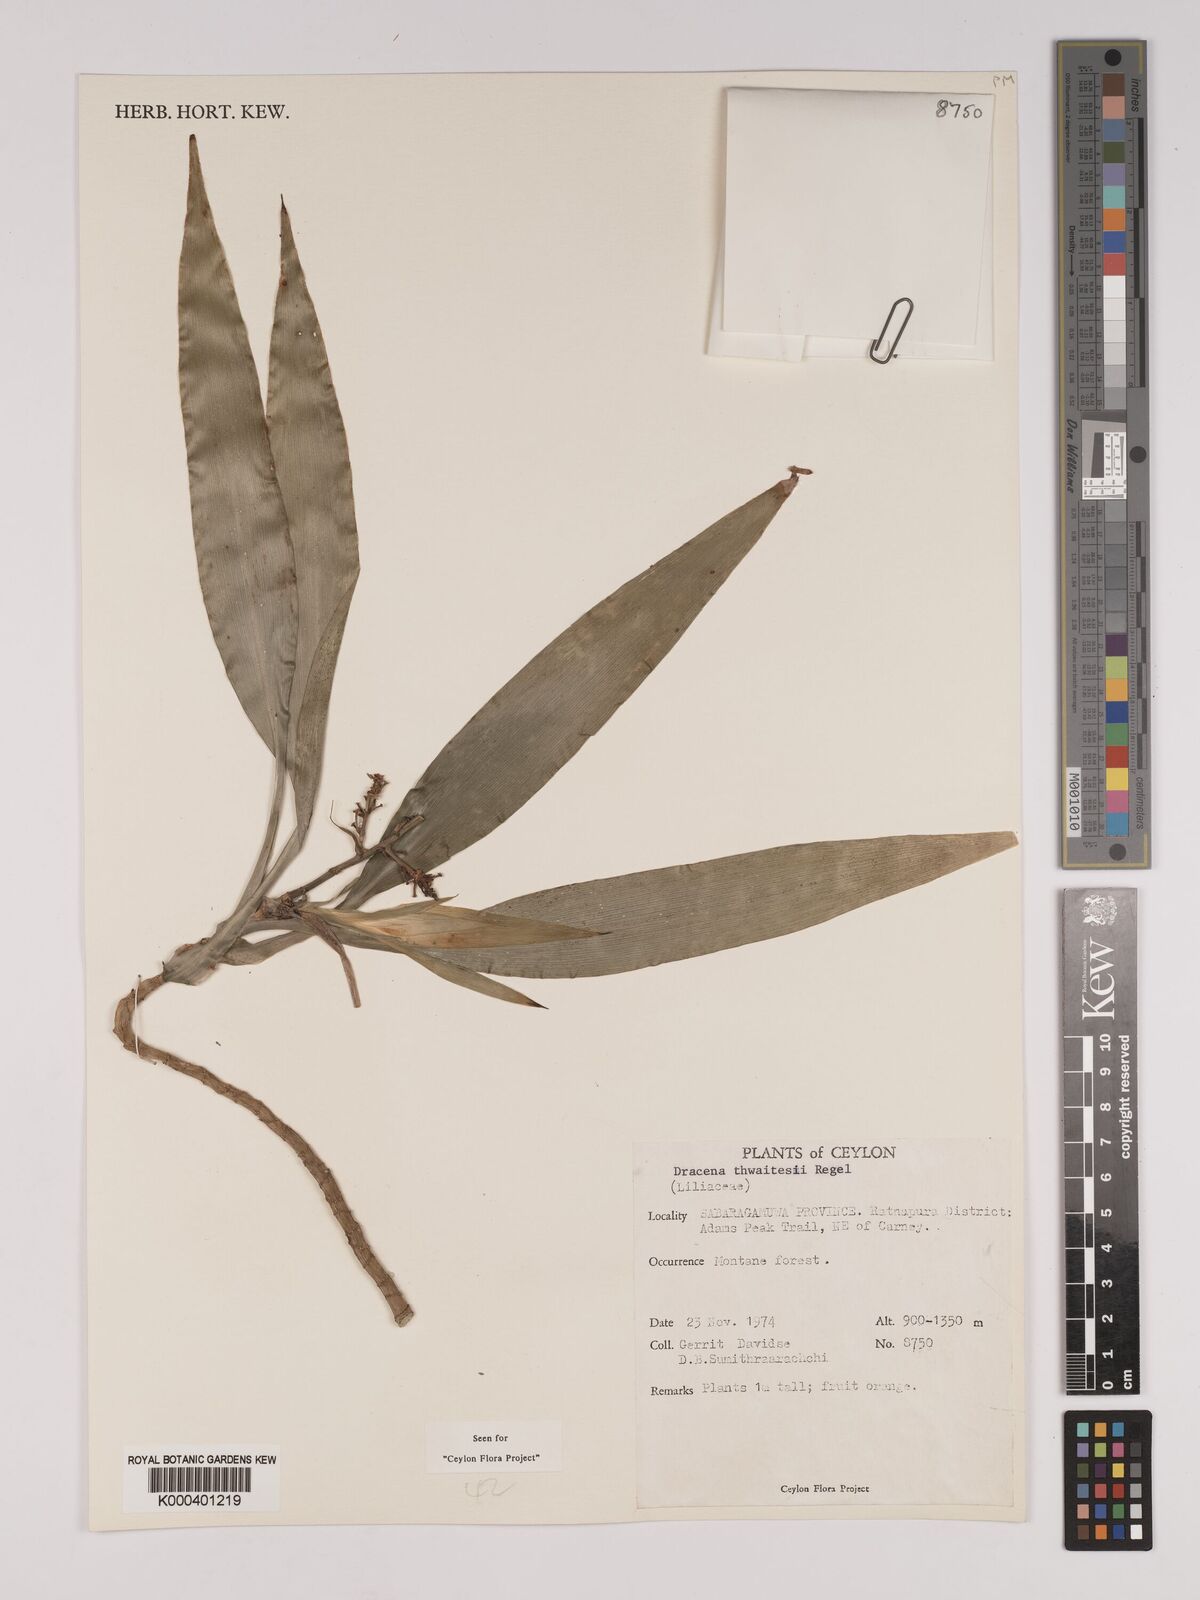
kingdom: Plantae
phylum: Tracheophyta
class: Liliopsida
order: Asparagales
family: Asparagaceae
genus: Dracaena
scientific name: Dracaena thwaitesii
